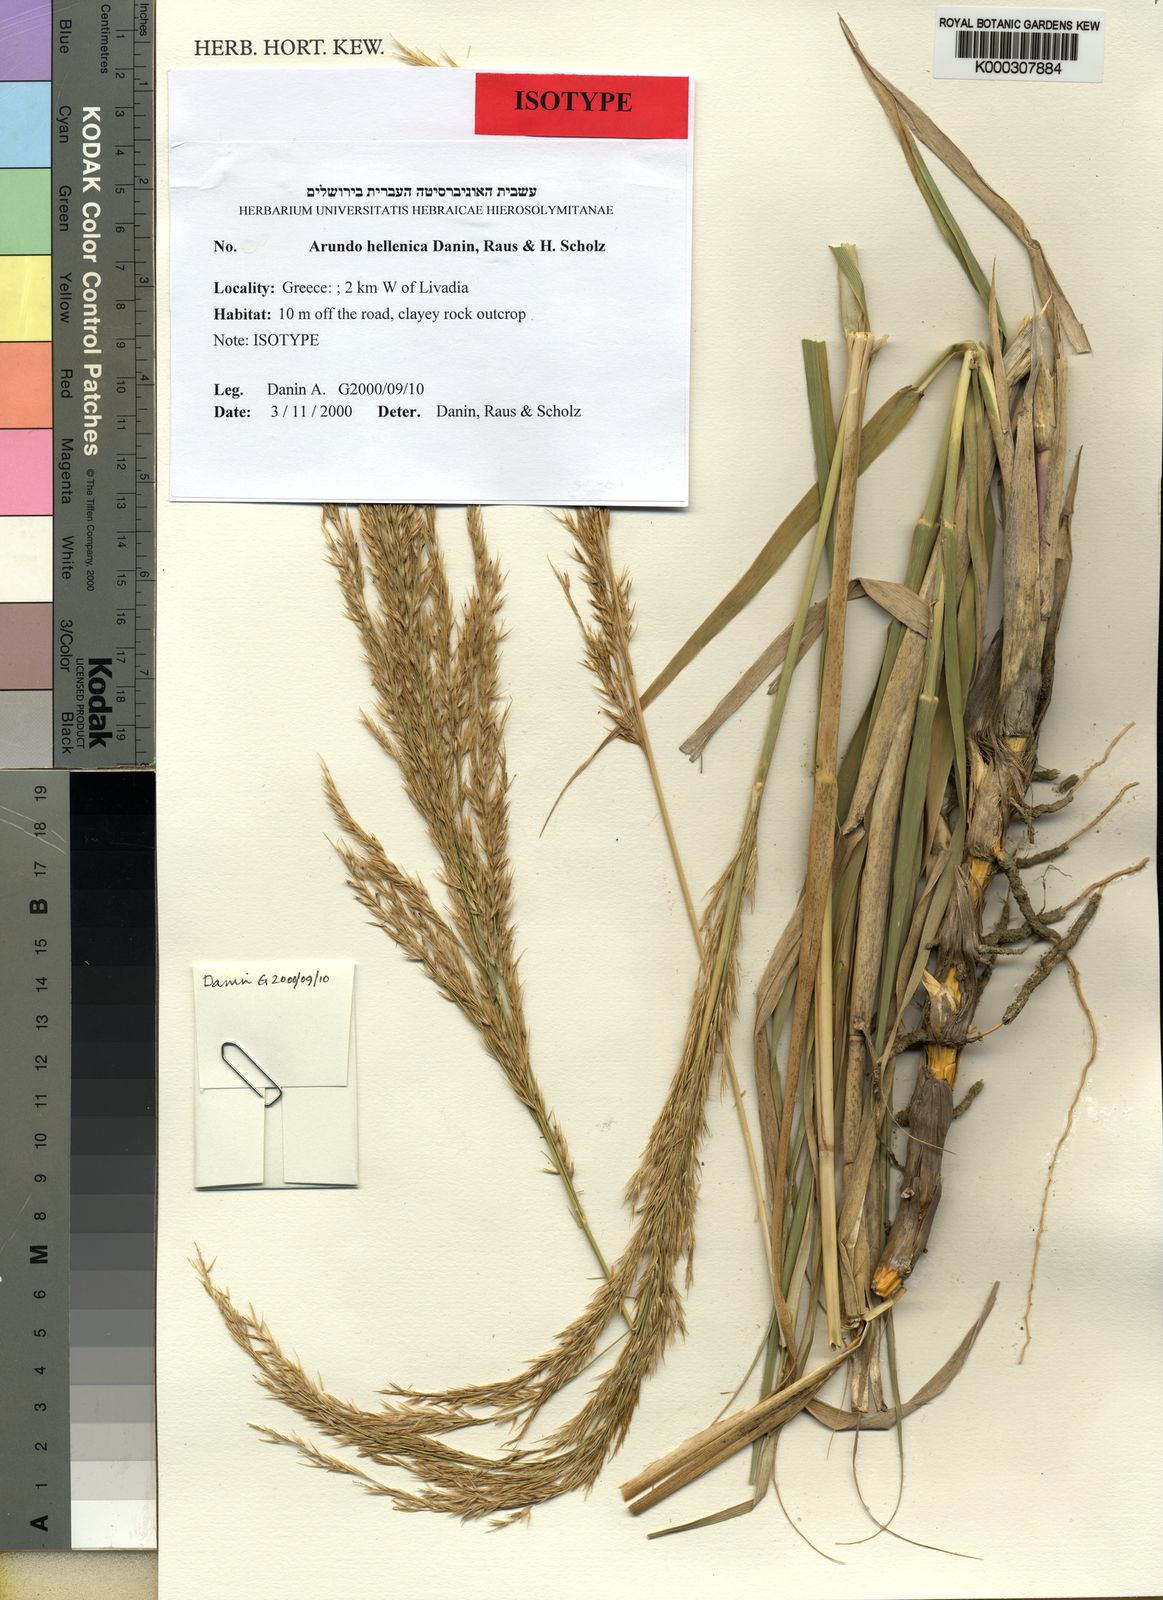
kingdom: Plantae
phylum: Tracheophyta
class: Liliopsida
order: Poales
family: Poaceae
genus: Arundo
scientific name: Arundo
